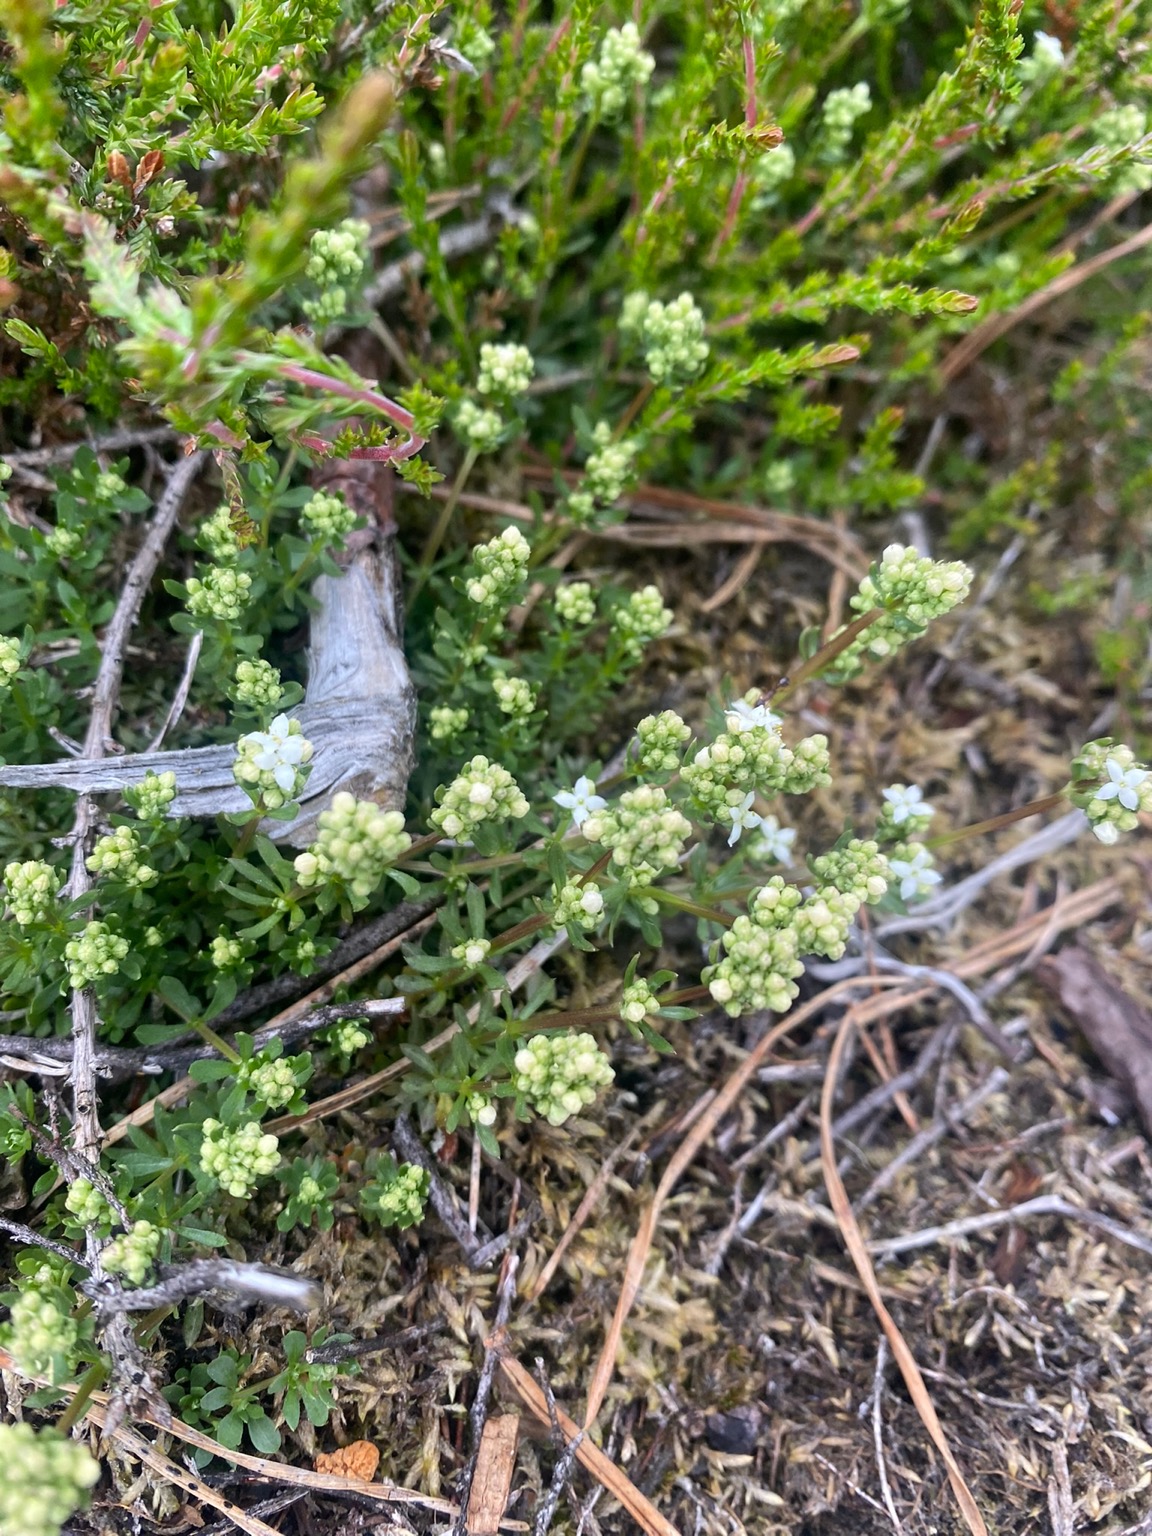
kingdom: Plantae
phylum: Tracheophyta
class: Magnoliopsida
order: Gentianales
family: Rubiaceae
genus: Galium
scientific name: Galium saxatile
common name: Lyng-snerre
